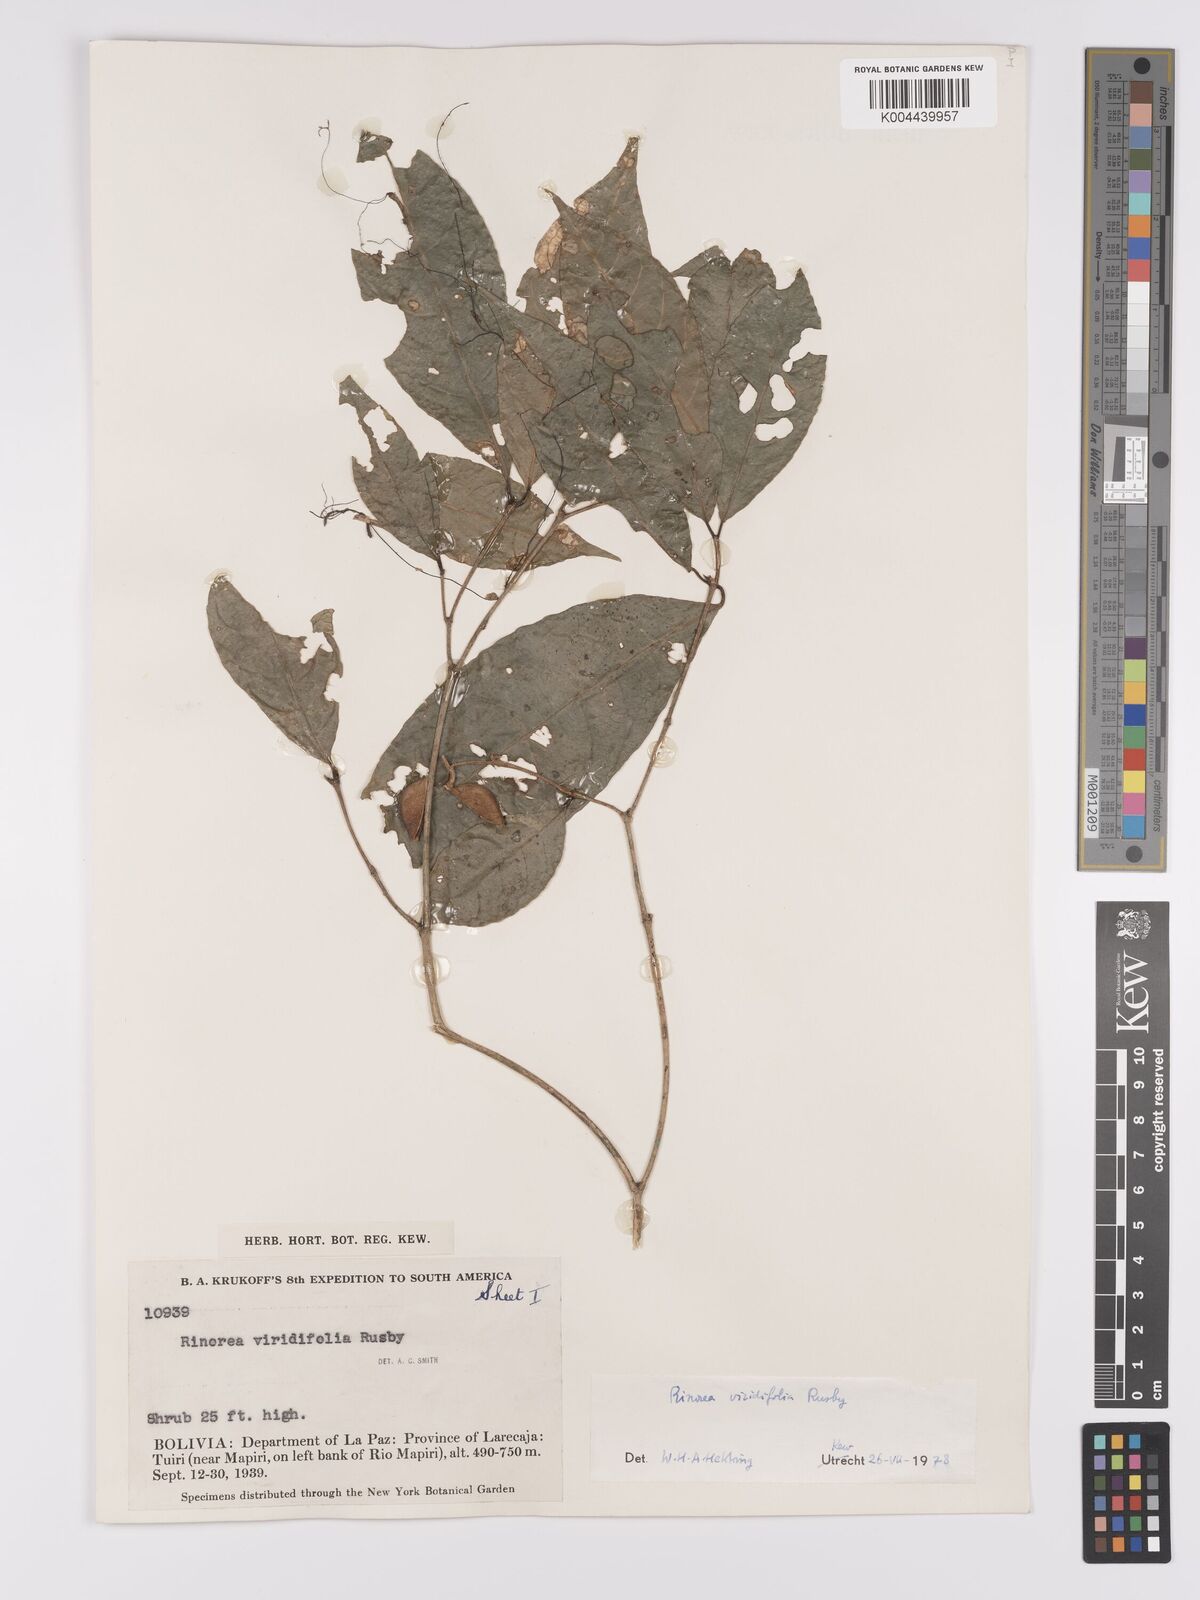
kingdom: Plantae
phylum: Tracheophyta
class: Magnoliopsida
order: Malpighiales
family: Violaceae
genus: Rinorea
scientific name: Rinorea viridifolia
